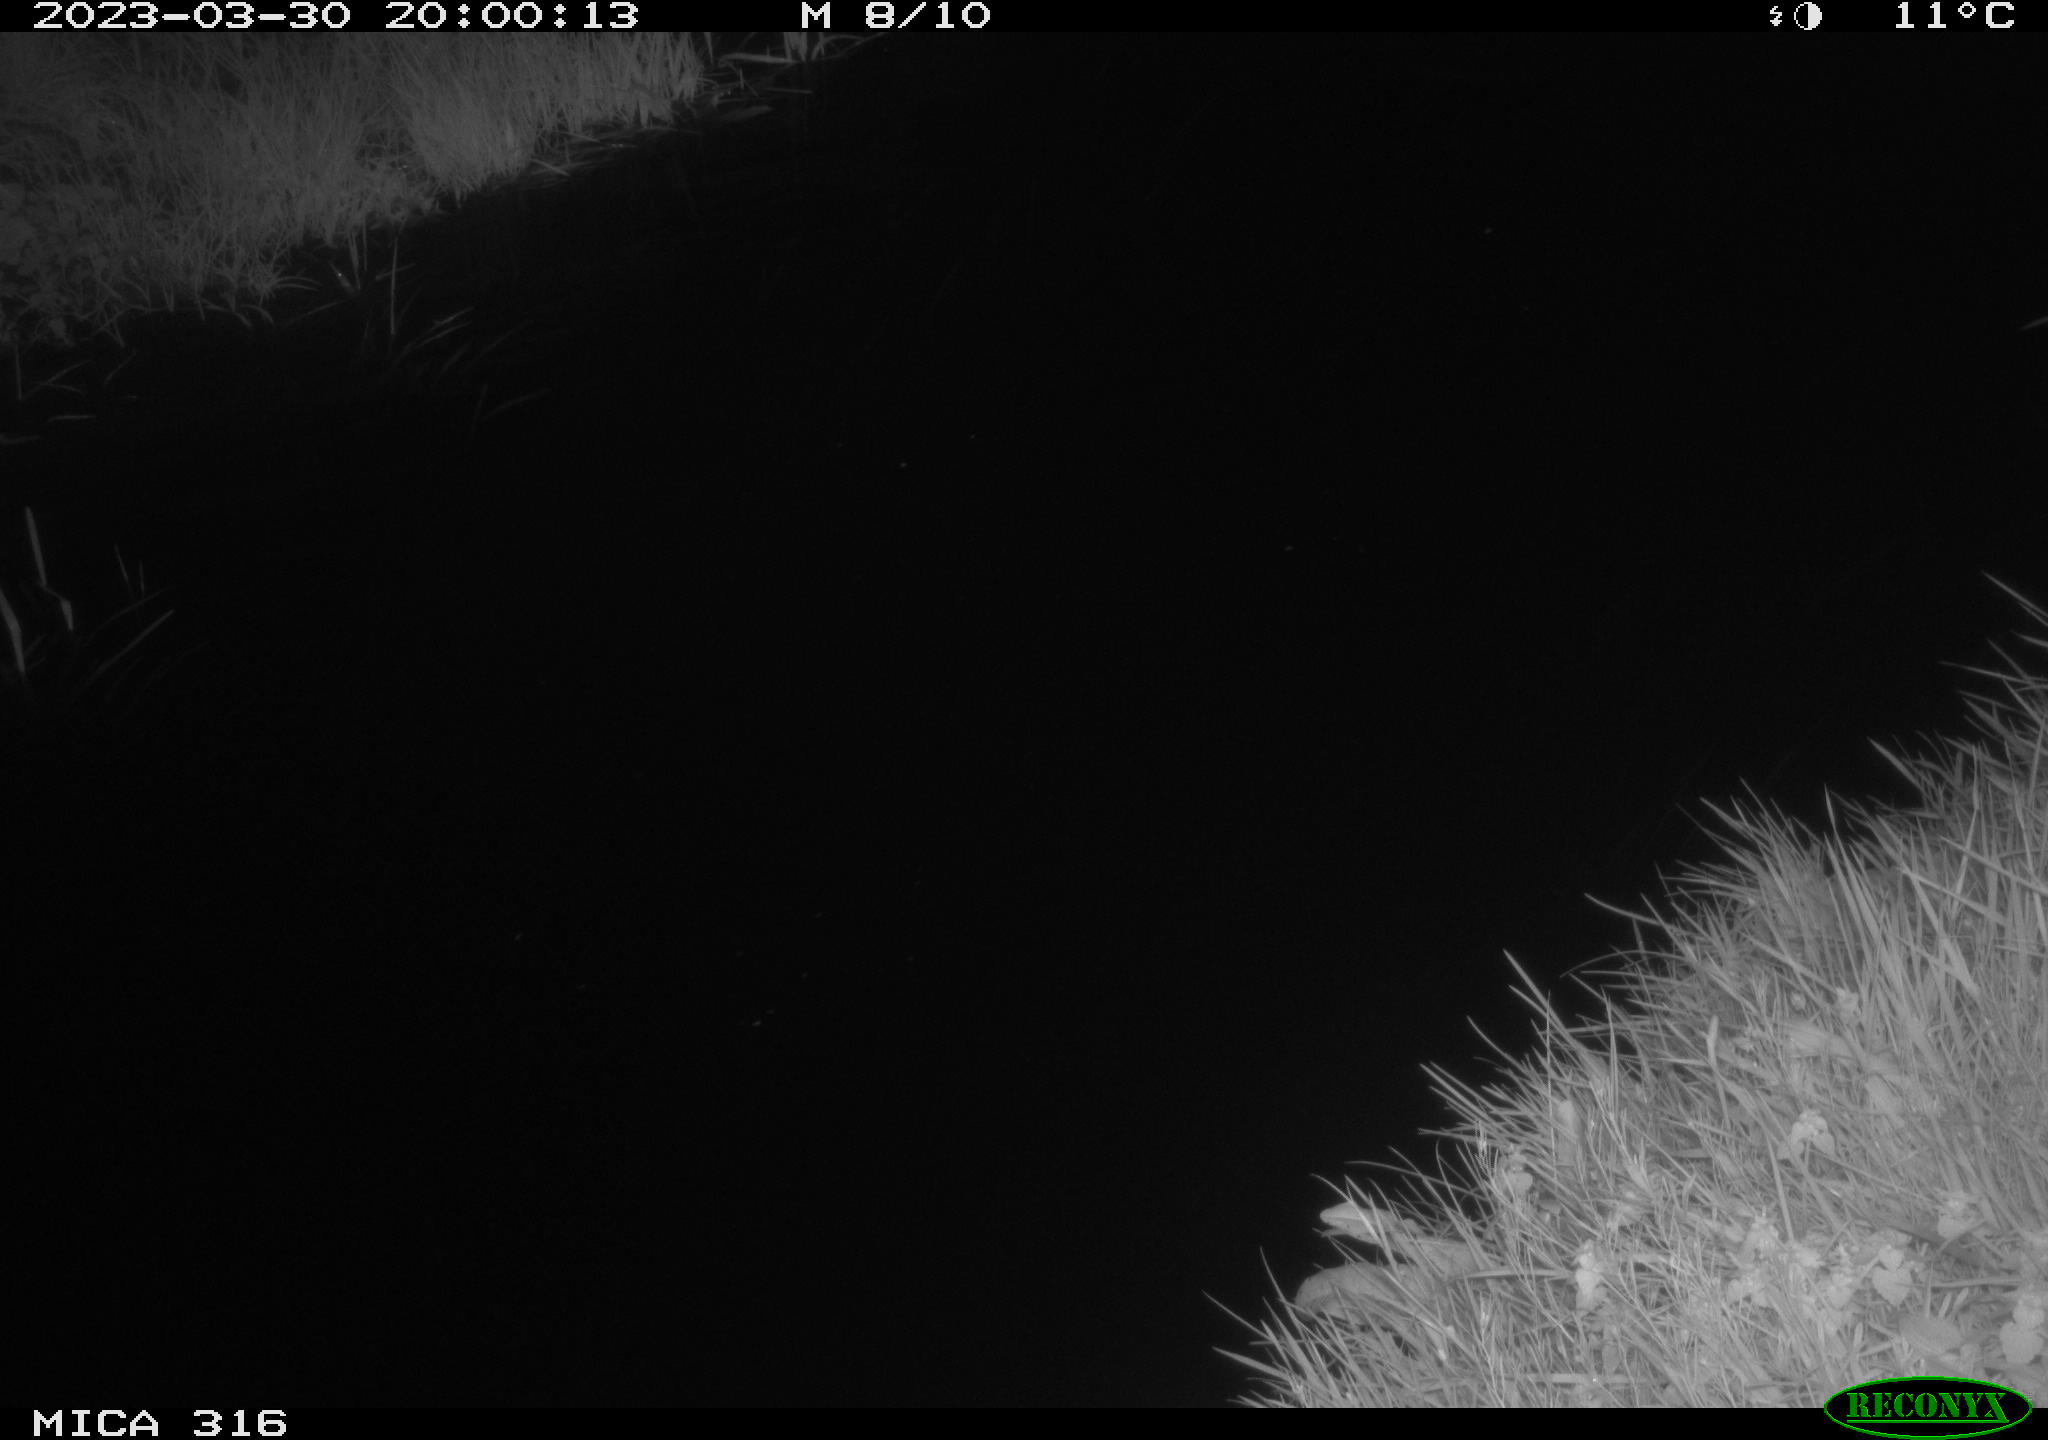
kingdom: Animalia
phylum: Chordata
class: Aves
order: Anseriformes
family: Anatidae
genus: Anas
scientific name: Anas
